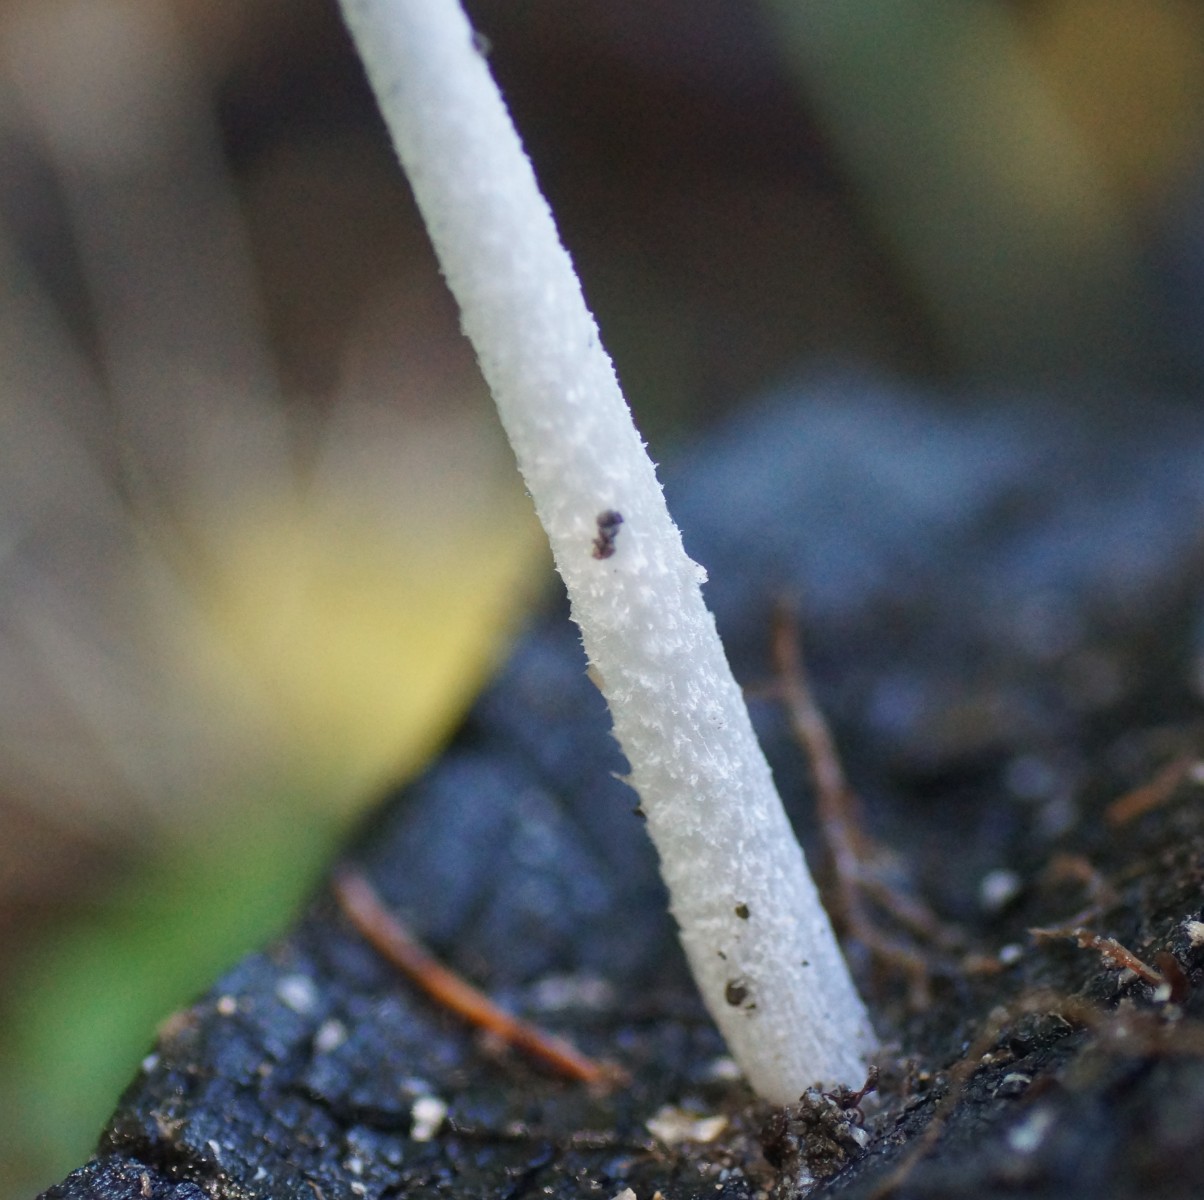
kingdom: Fungi
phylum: Basidiomycota
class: Agaricomycetes
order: Agaricales
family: Psathyrellaceae
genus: Coprinopsis
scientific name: Coprinopsis
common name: blækhat
